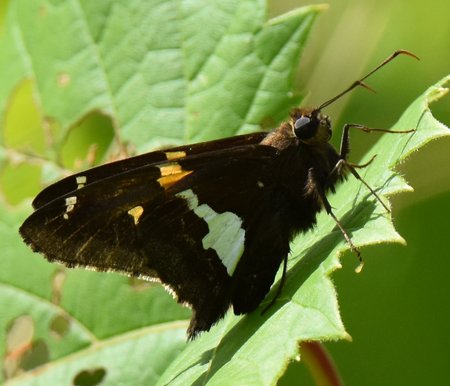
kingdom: Animalia
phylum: Arthropoda
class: Insecta
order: Lepidoptera
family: Hesperiidae
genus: Epargyreus
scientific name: Epargyreus clarus
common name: Silver-spotted Skipper
